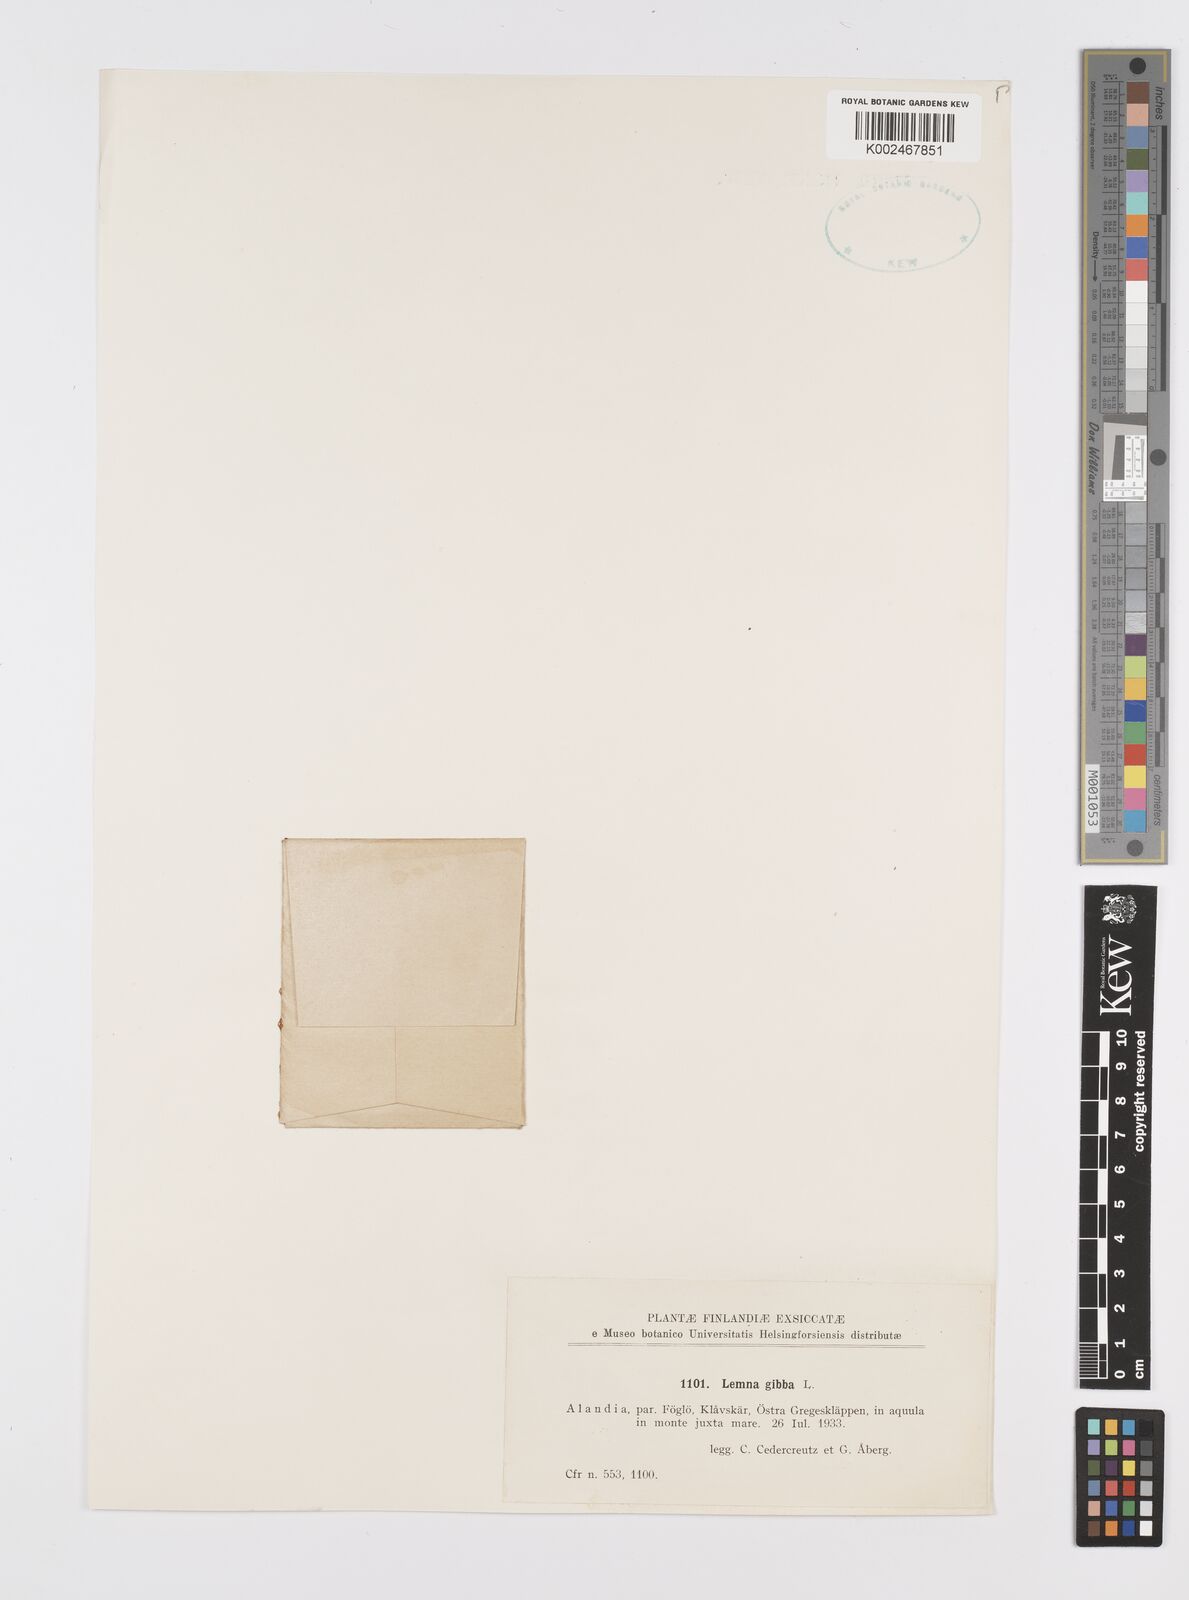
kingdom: Plantae
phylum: Tracheophyta
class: Liliopsida
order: Alismatales
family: Araceae
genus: Lemna
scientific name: Lemna gibba
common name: Fat duckweed
